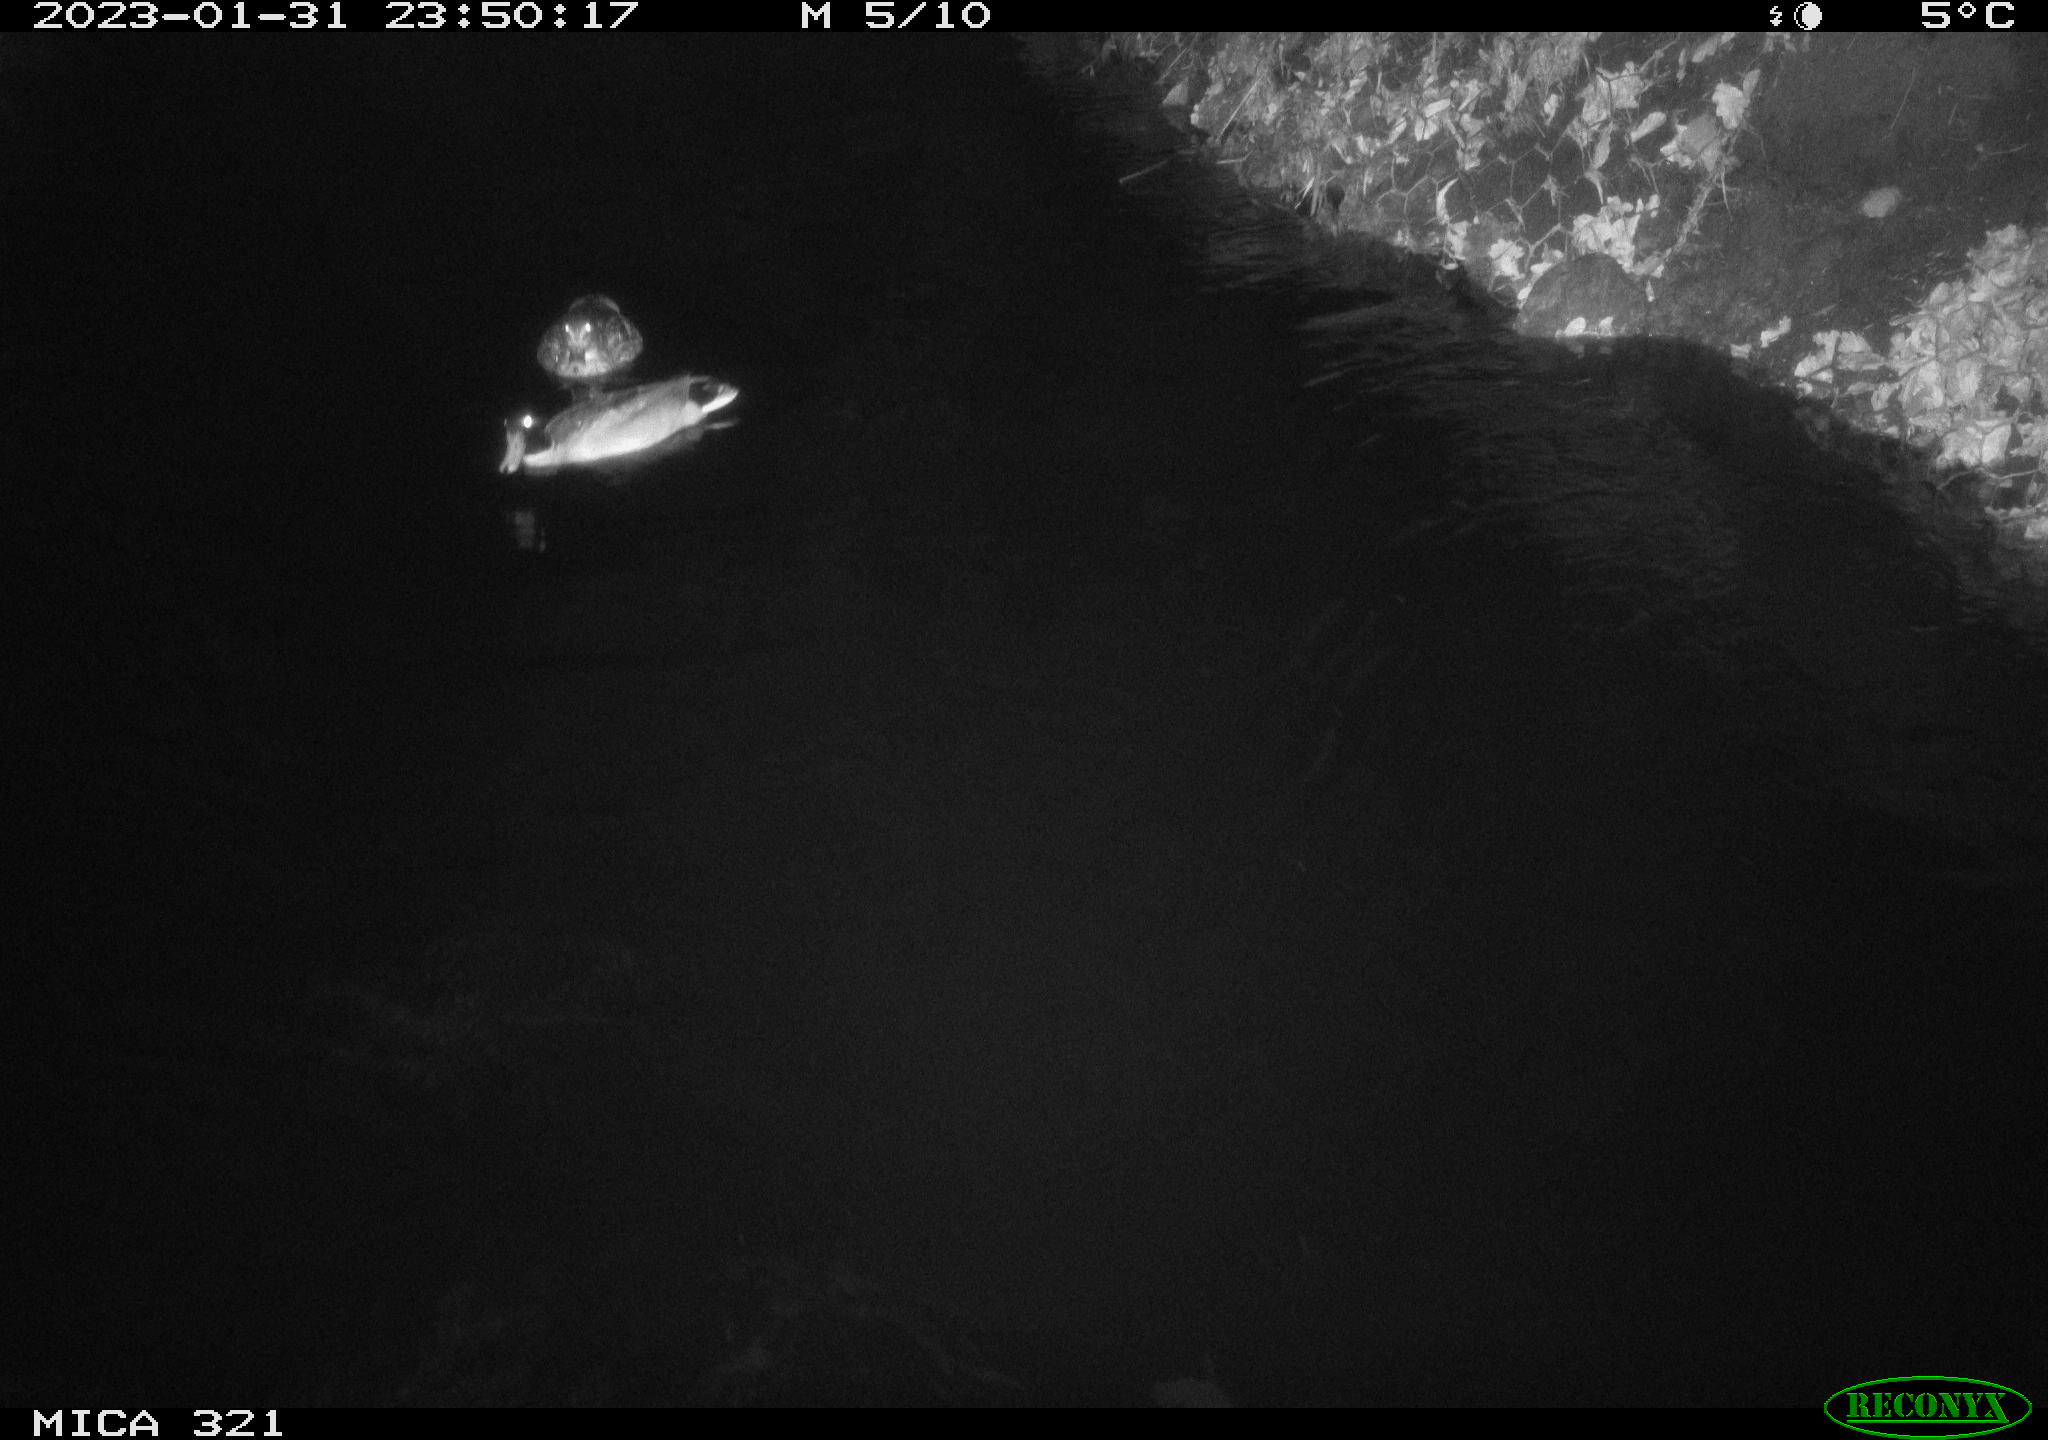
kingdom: Animalia
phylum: Chordata
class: Aves
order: Anseriformes
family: Anatidae
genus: Anas
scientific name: Anas
